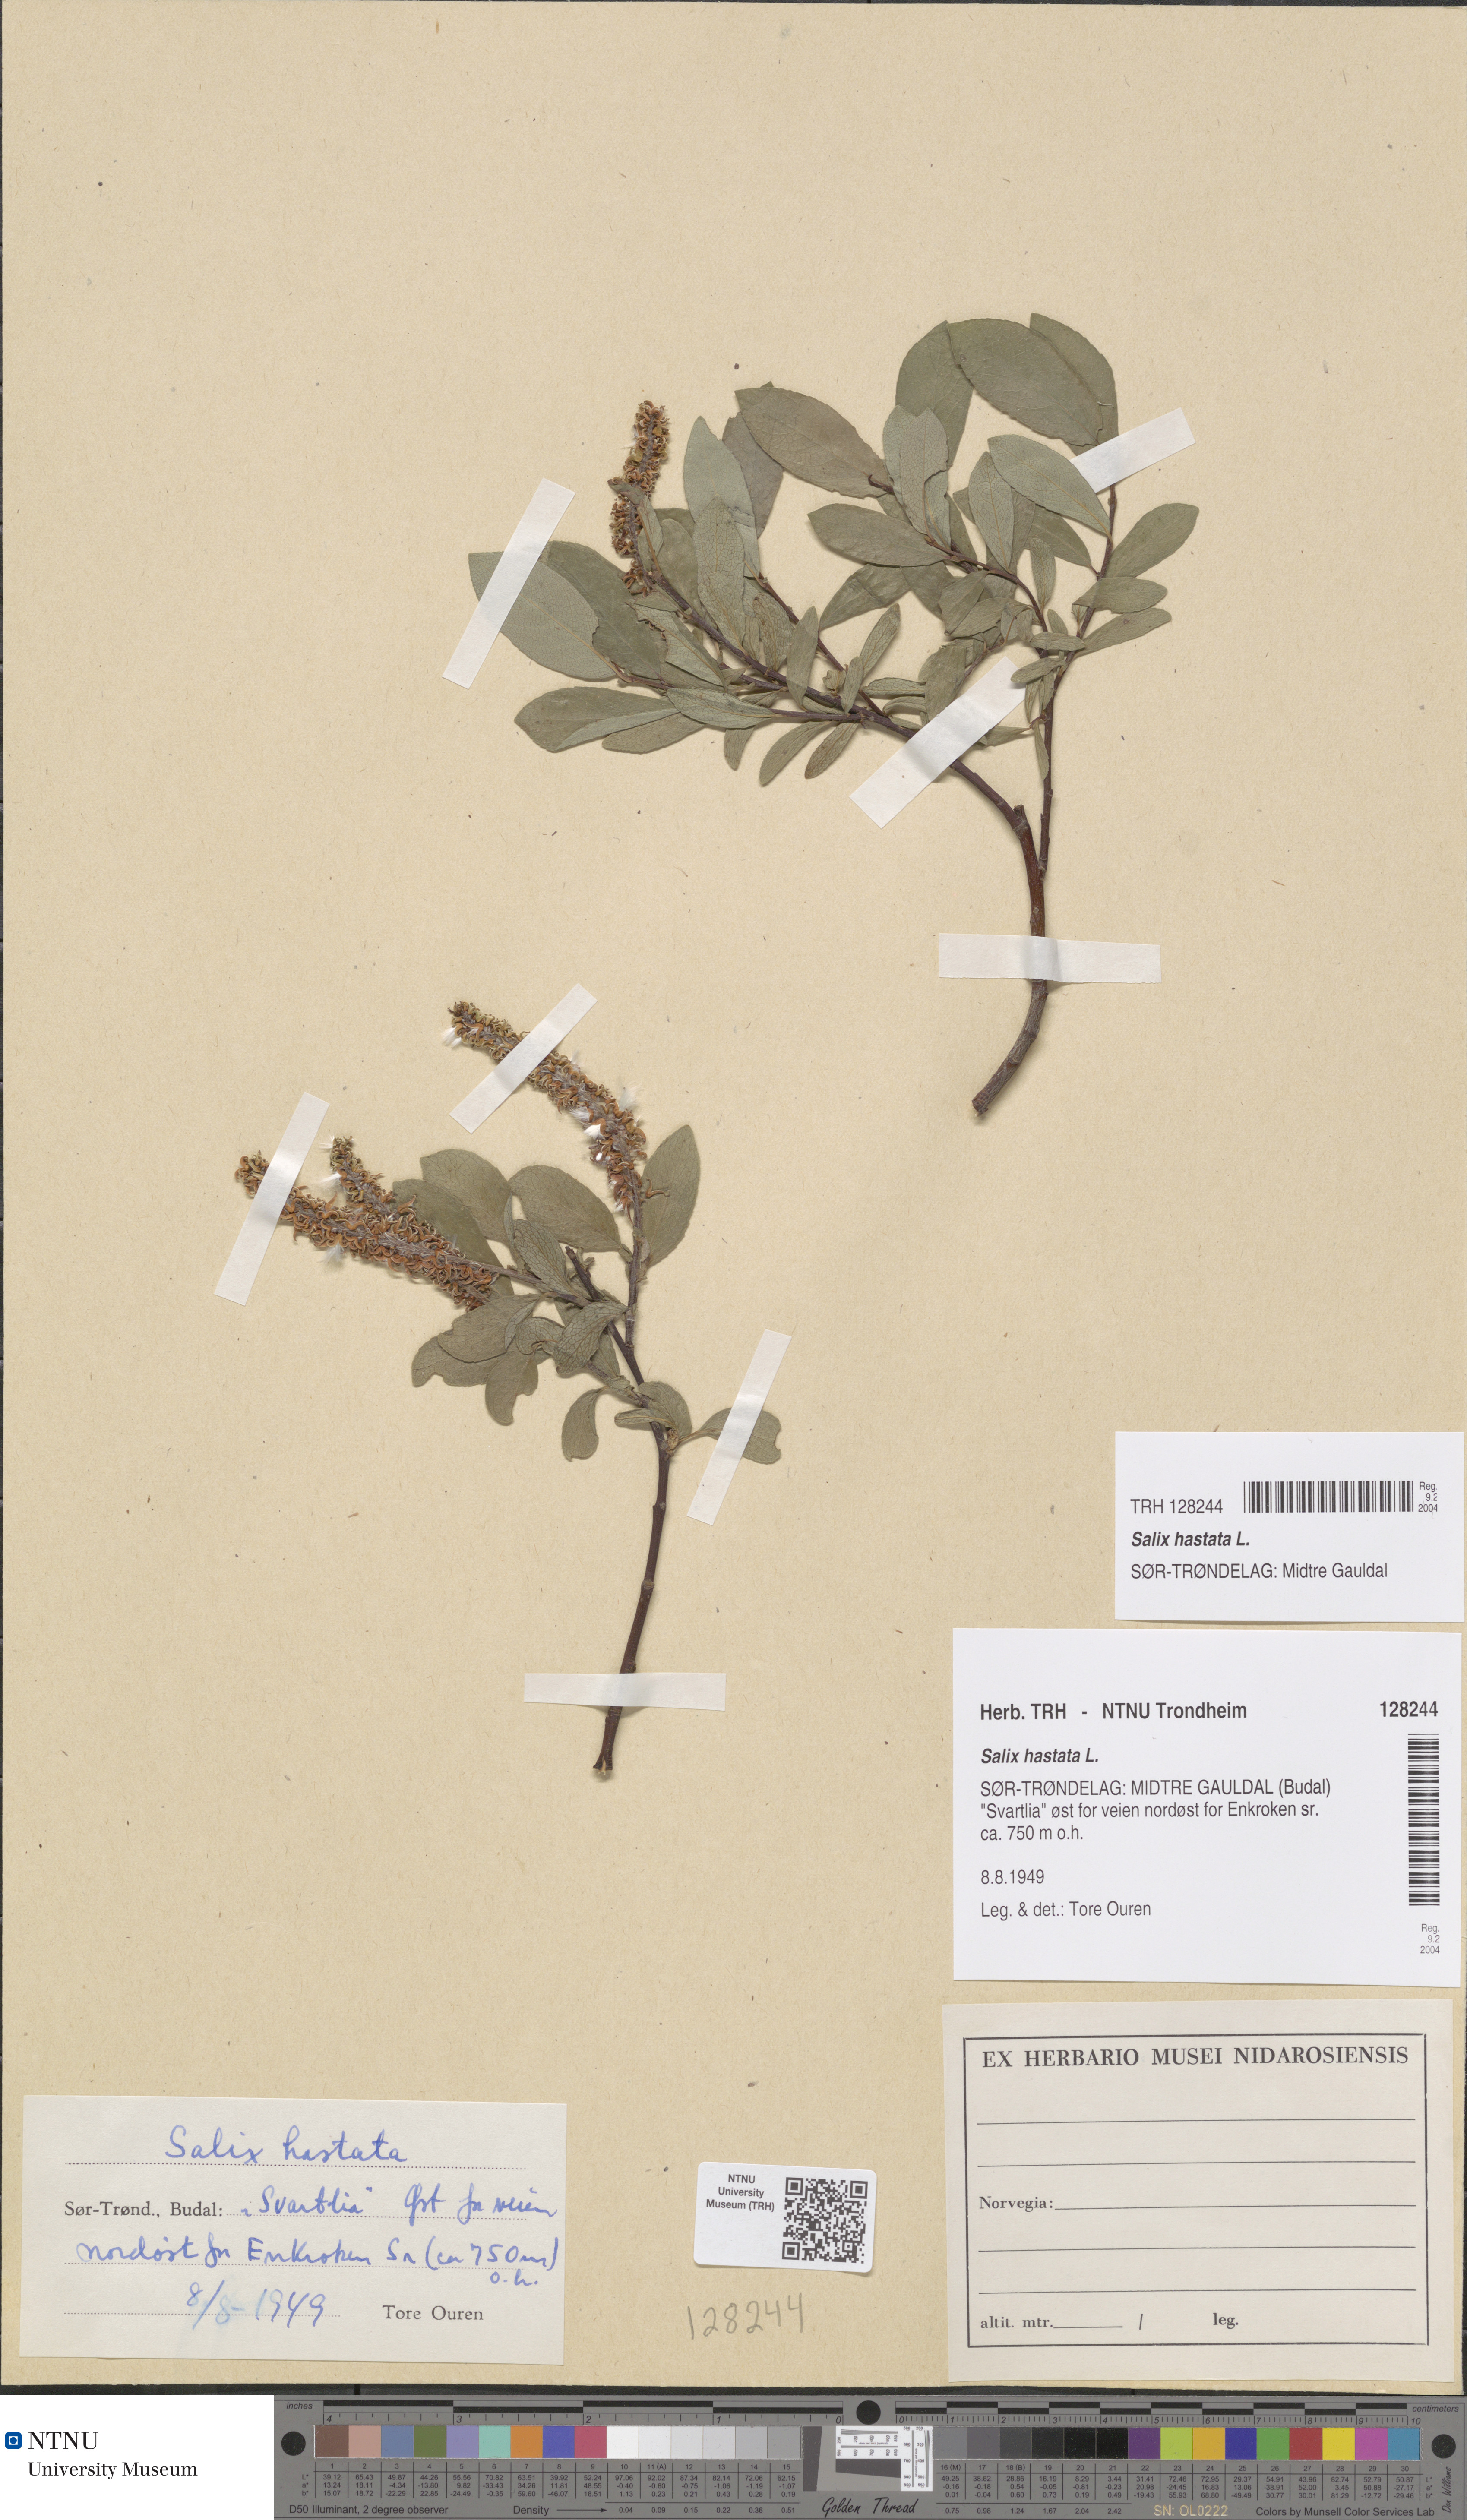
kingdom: Plantae
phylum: Tracheophyta
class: Magnoliopsida
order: Malpighiales
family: Salicaceae
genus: Salix
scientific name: Salix hastata
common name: Halberd willow
